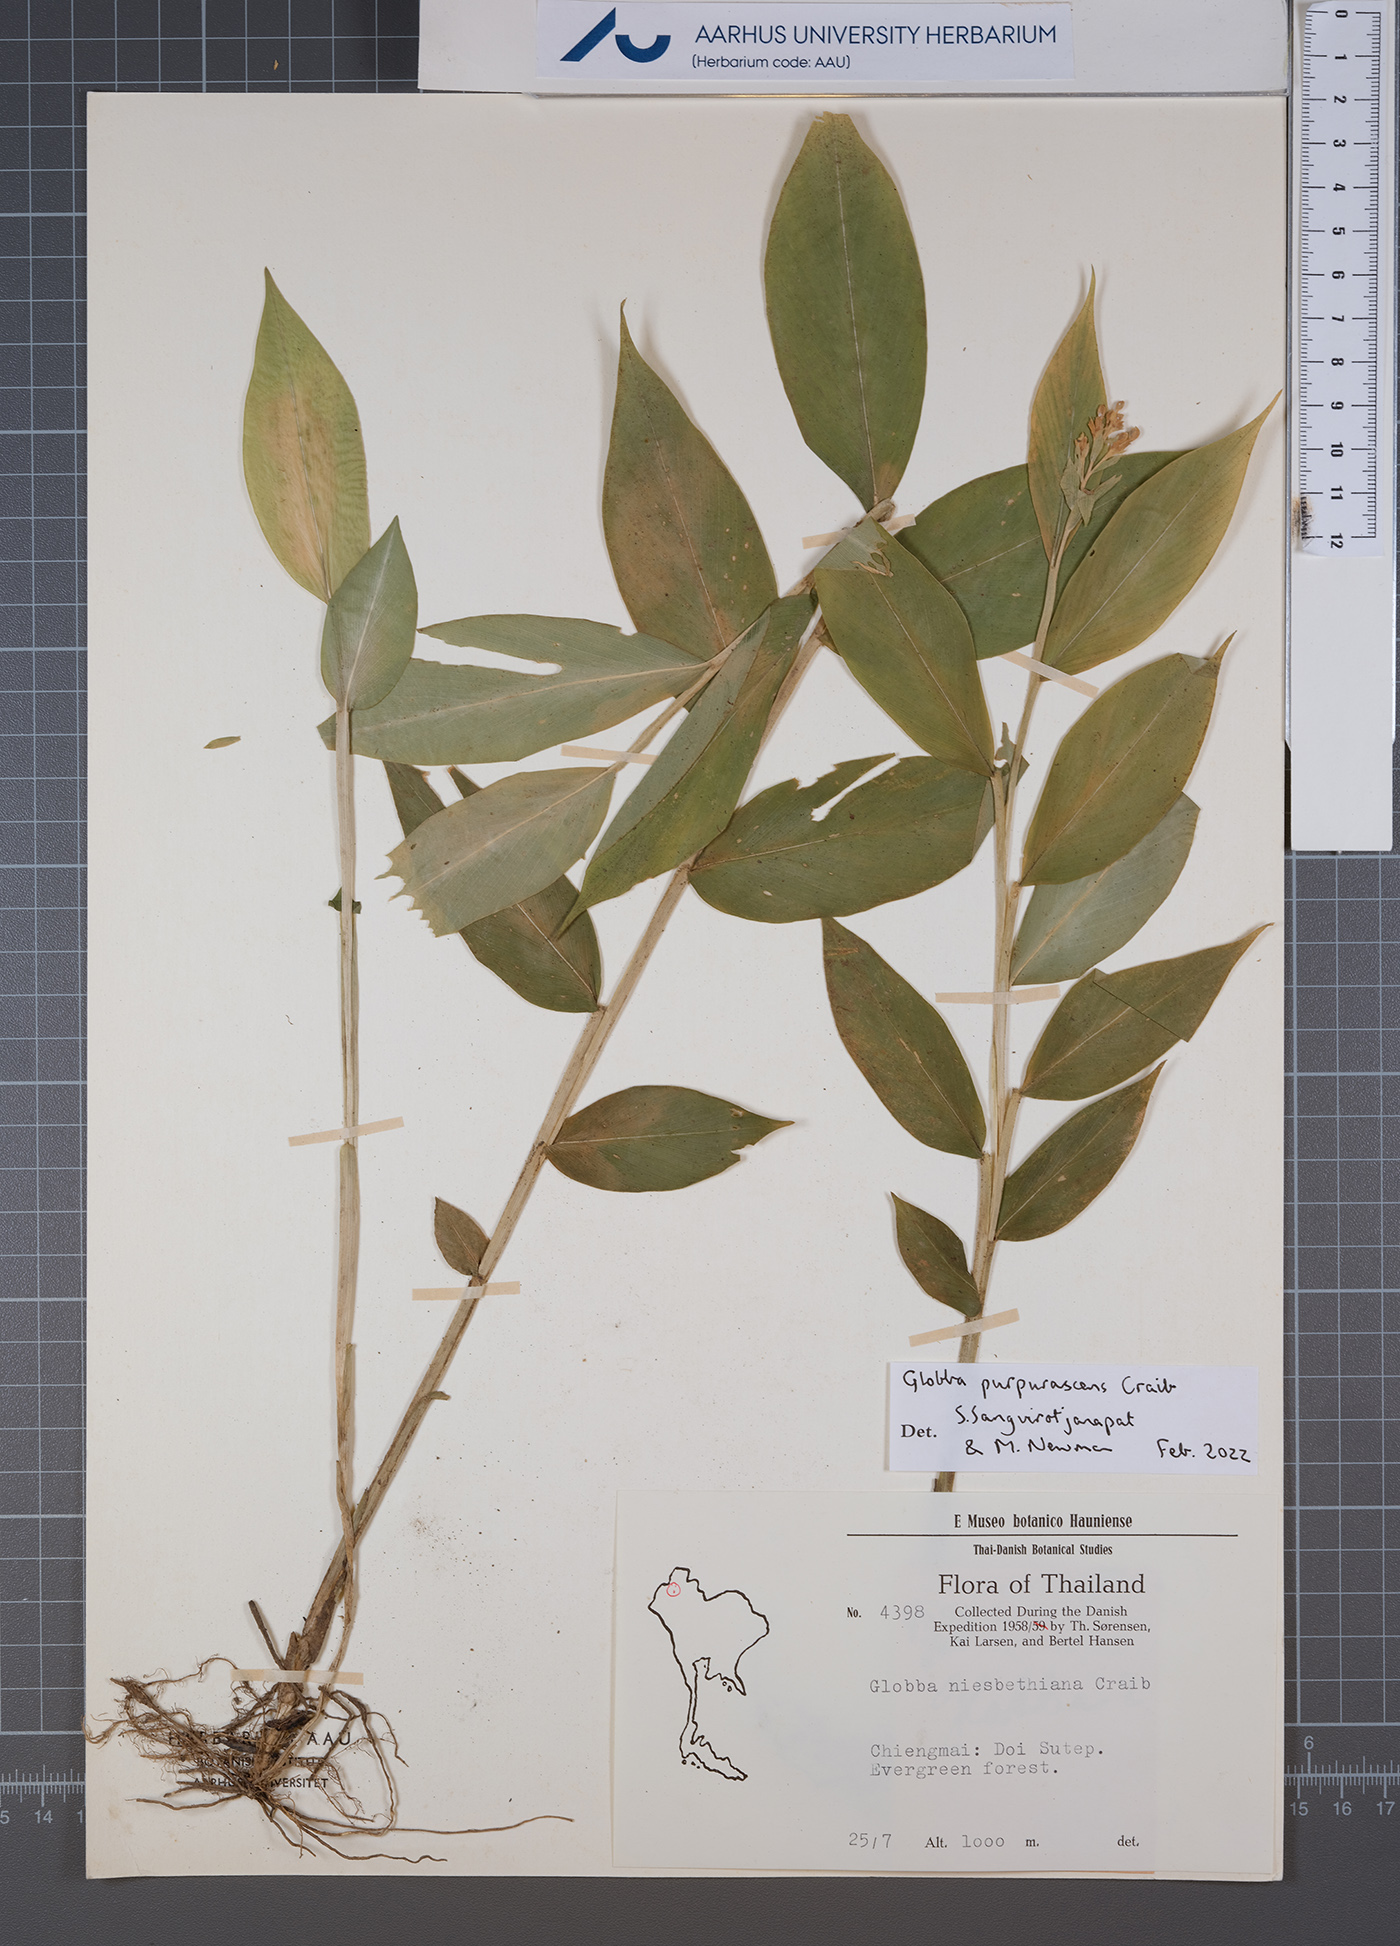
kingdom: Plantae
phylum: Tracheophyta
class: Liliopsida
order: Zingiberales
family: Zingiberaceae
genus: Globba
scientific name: Globba purpurascens
